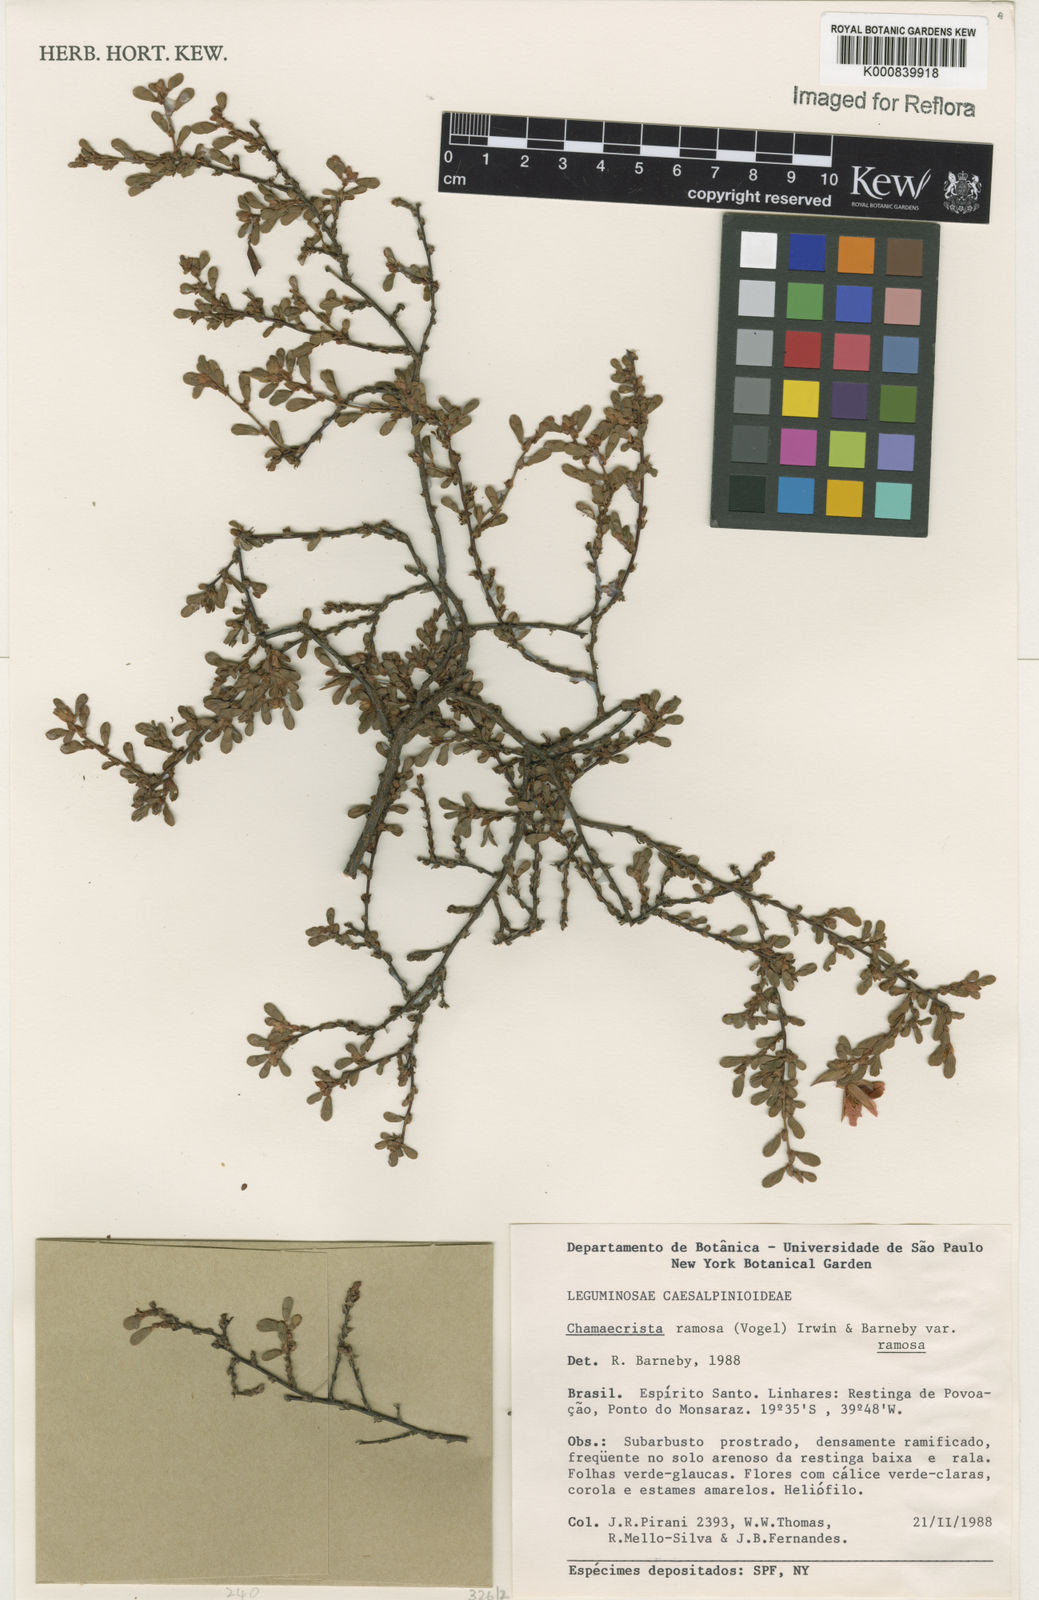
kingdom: Plantae
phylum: Tracheophyta
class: Magnoliopsida
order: Fabales
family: Fabaceae
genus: Chamaecrista
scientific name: Chamaecrista ramosa
